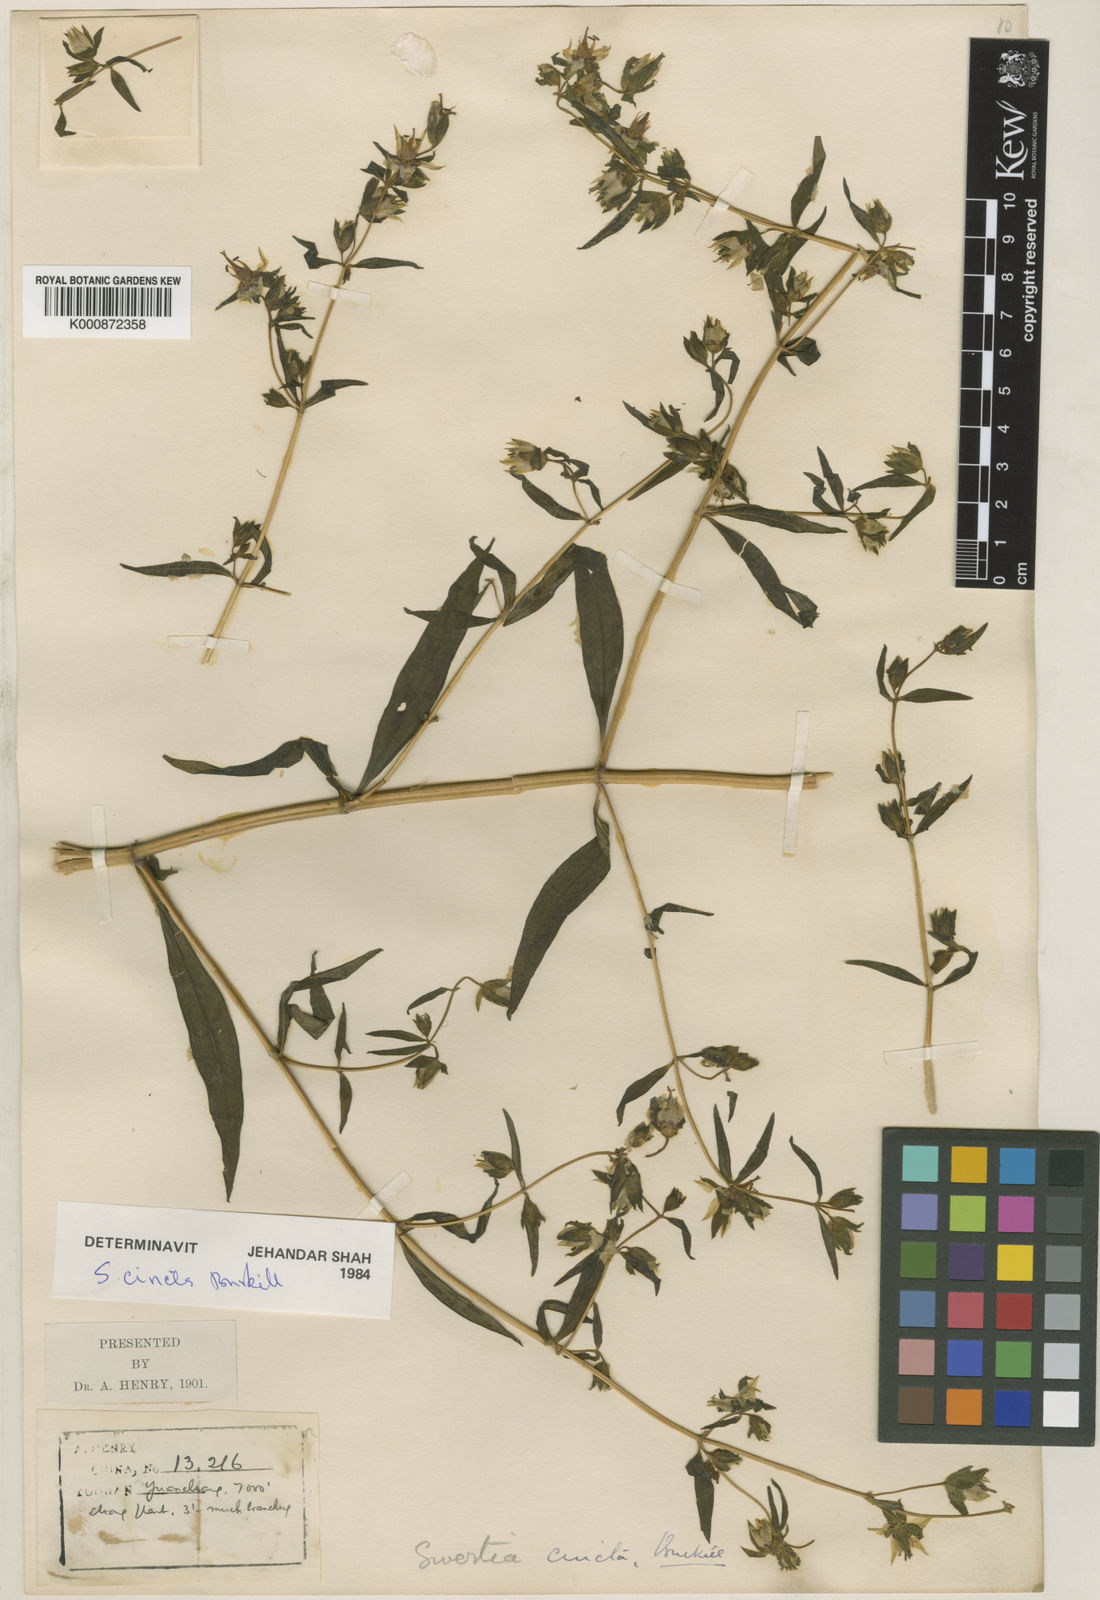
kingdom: Plantae
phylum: Tracheophyta
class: Magnoliopsida
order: Gentianales
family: Gentianaceae
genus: Swertia
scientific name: Swertia cincta
